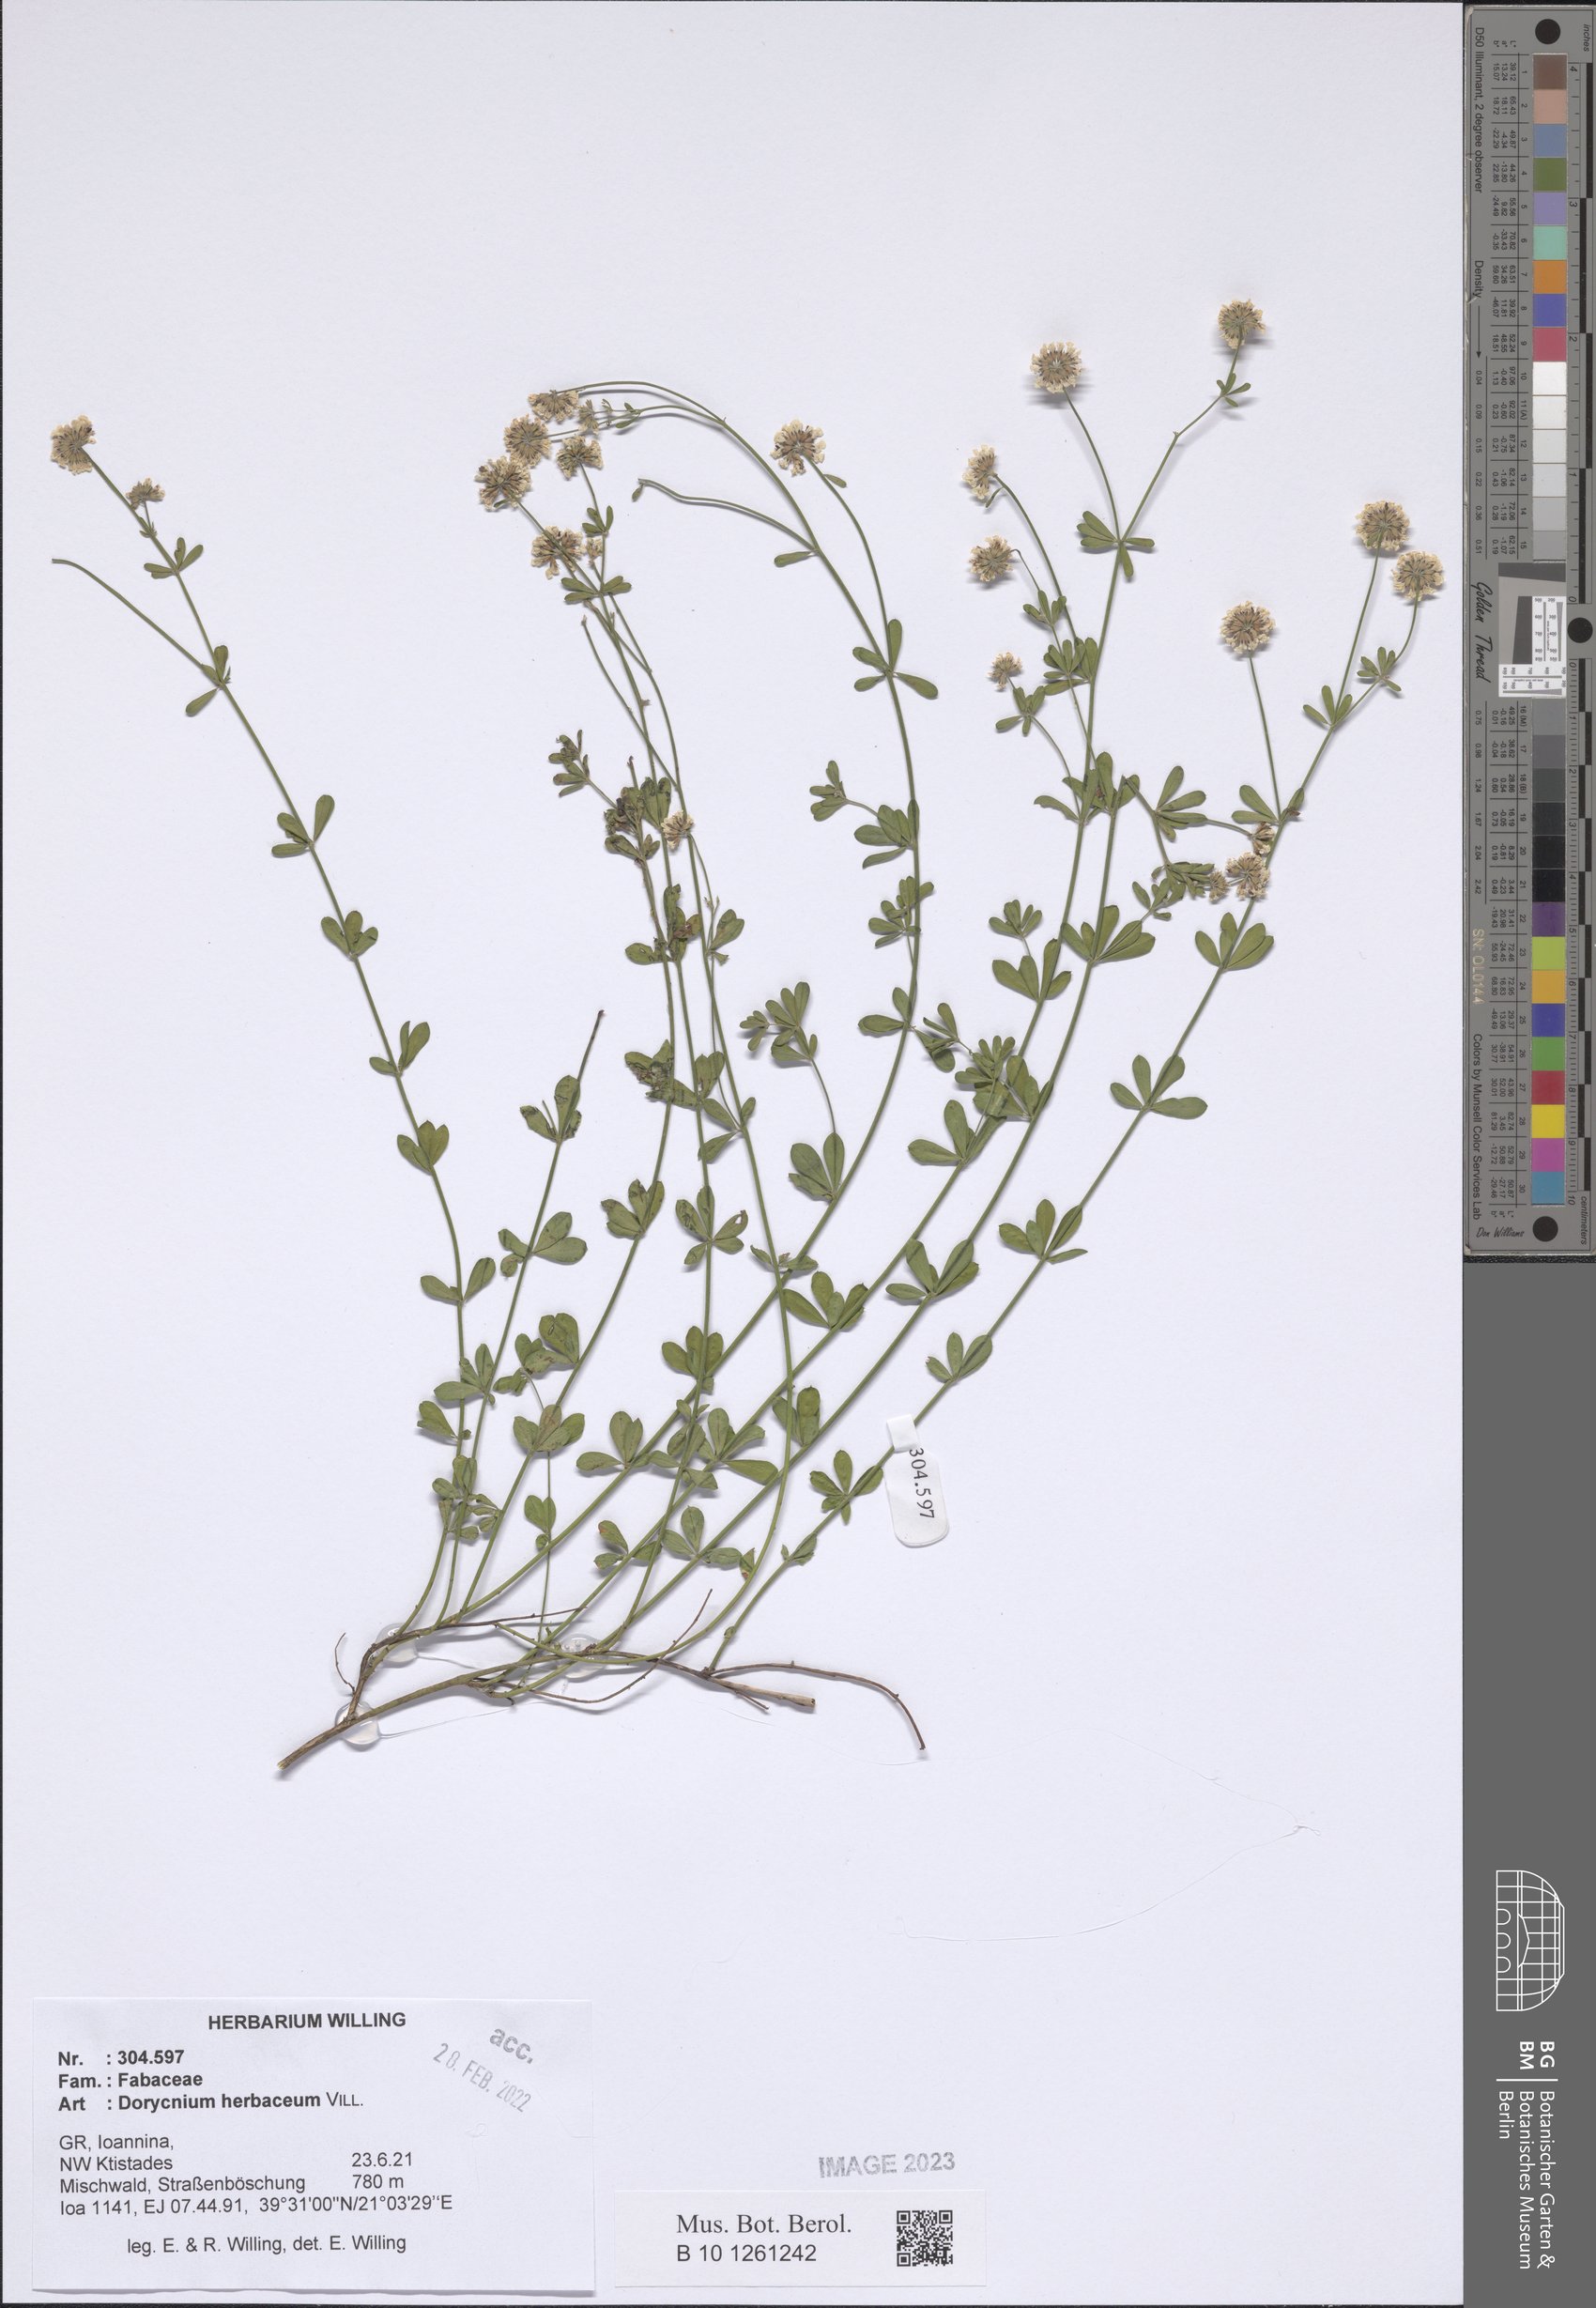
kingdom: Plantae
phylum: Tracheophyta
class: Magnoliopsida
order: Fabales
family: Fabaceae
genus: Lotus
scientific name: Lotus herbaceus
